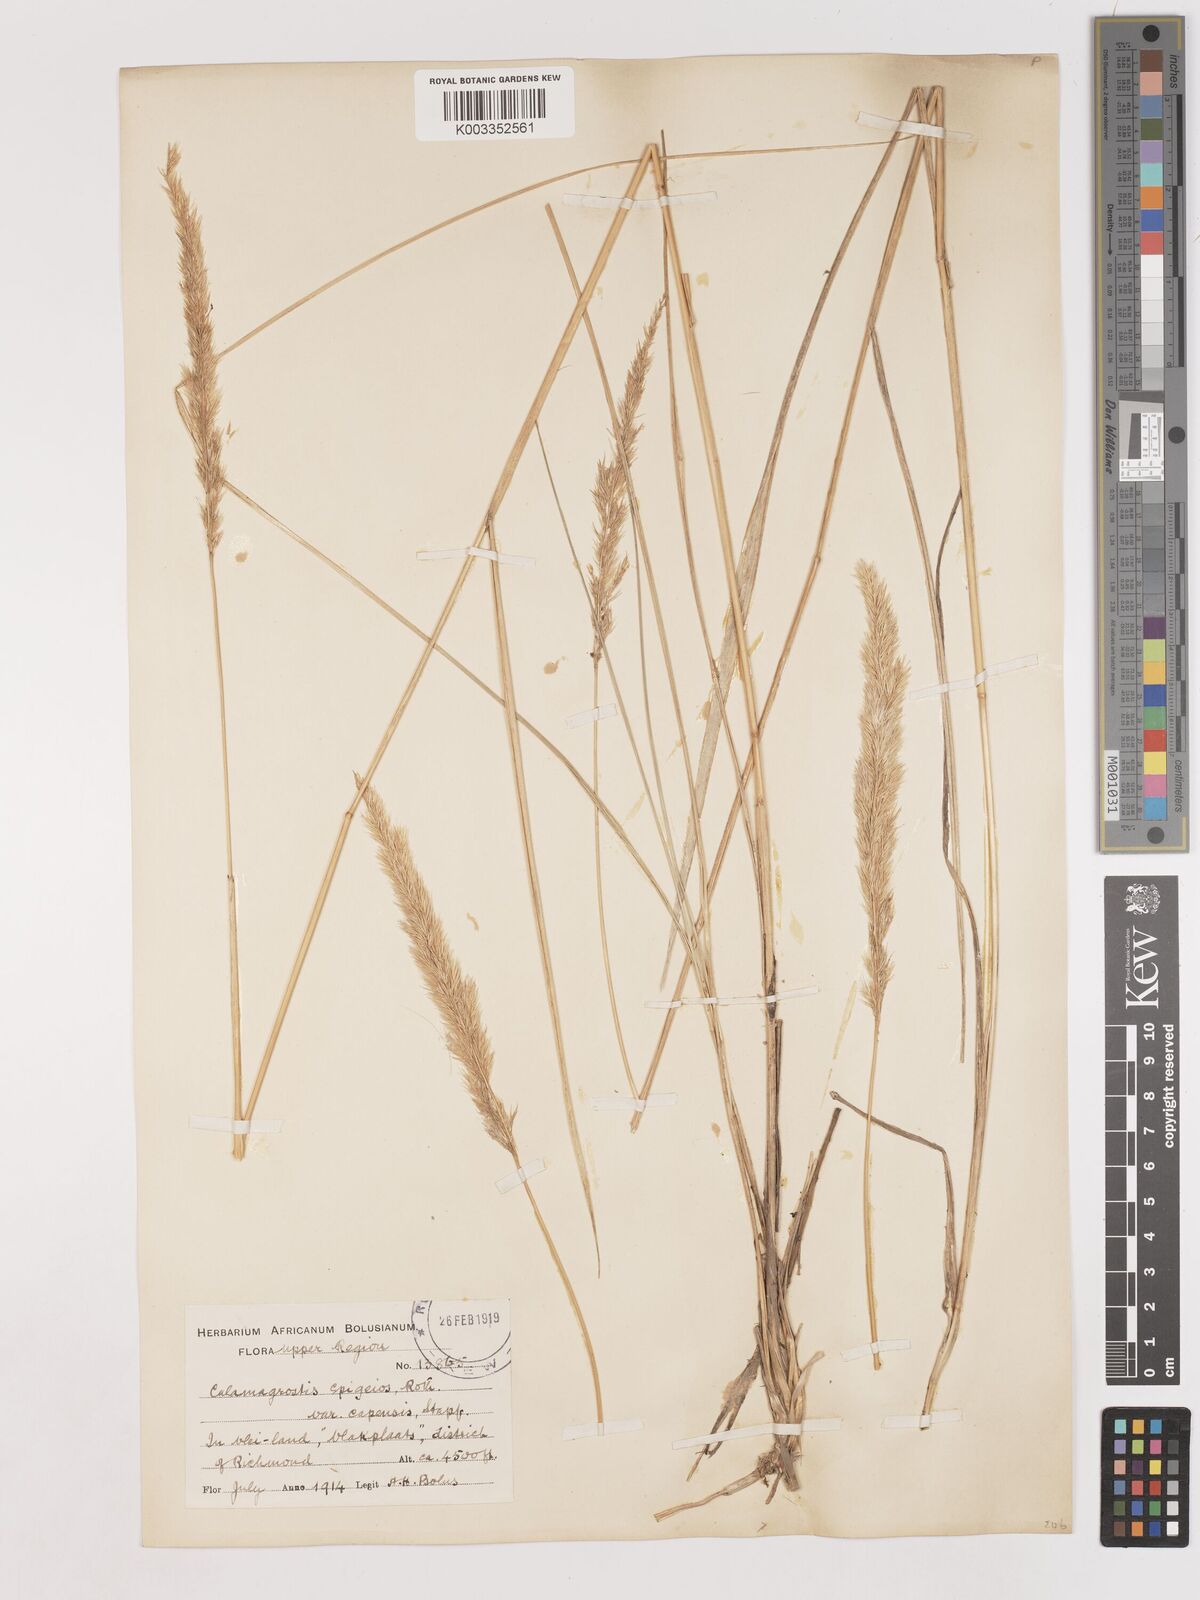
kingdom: Plantae
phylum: Tracheophyta
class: Liliopsida
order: Poales
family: Poaceae
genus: Calamagrostis
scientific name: Calamagrostis epigejos
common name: Wood small-reed
